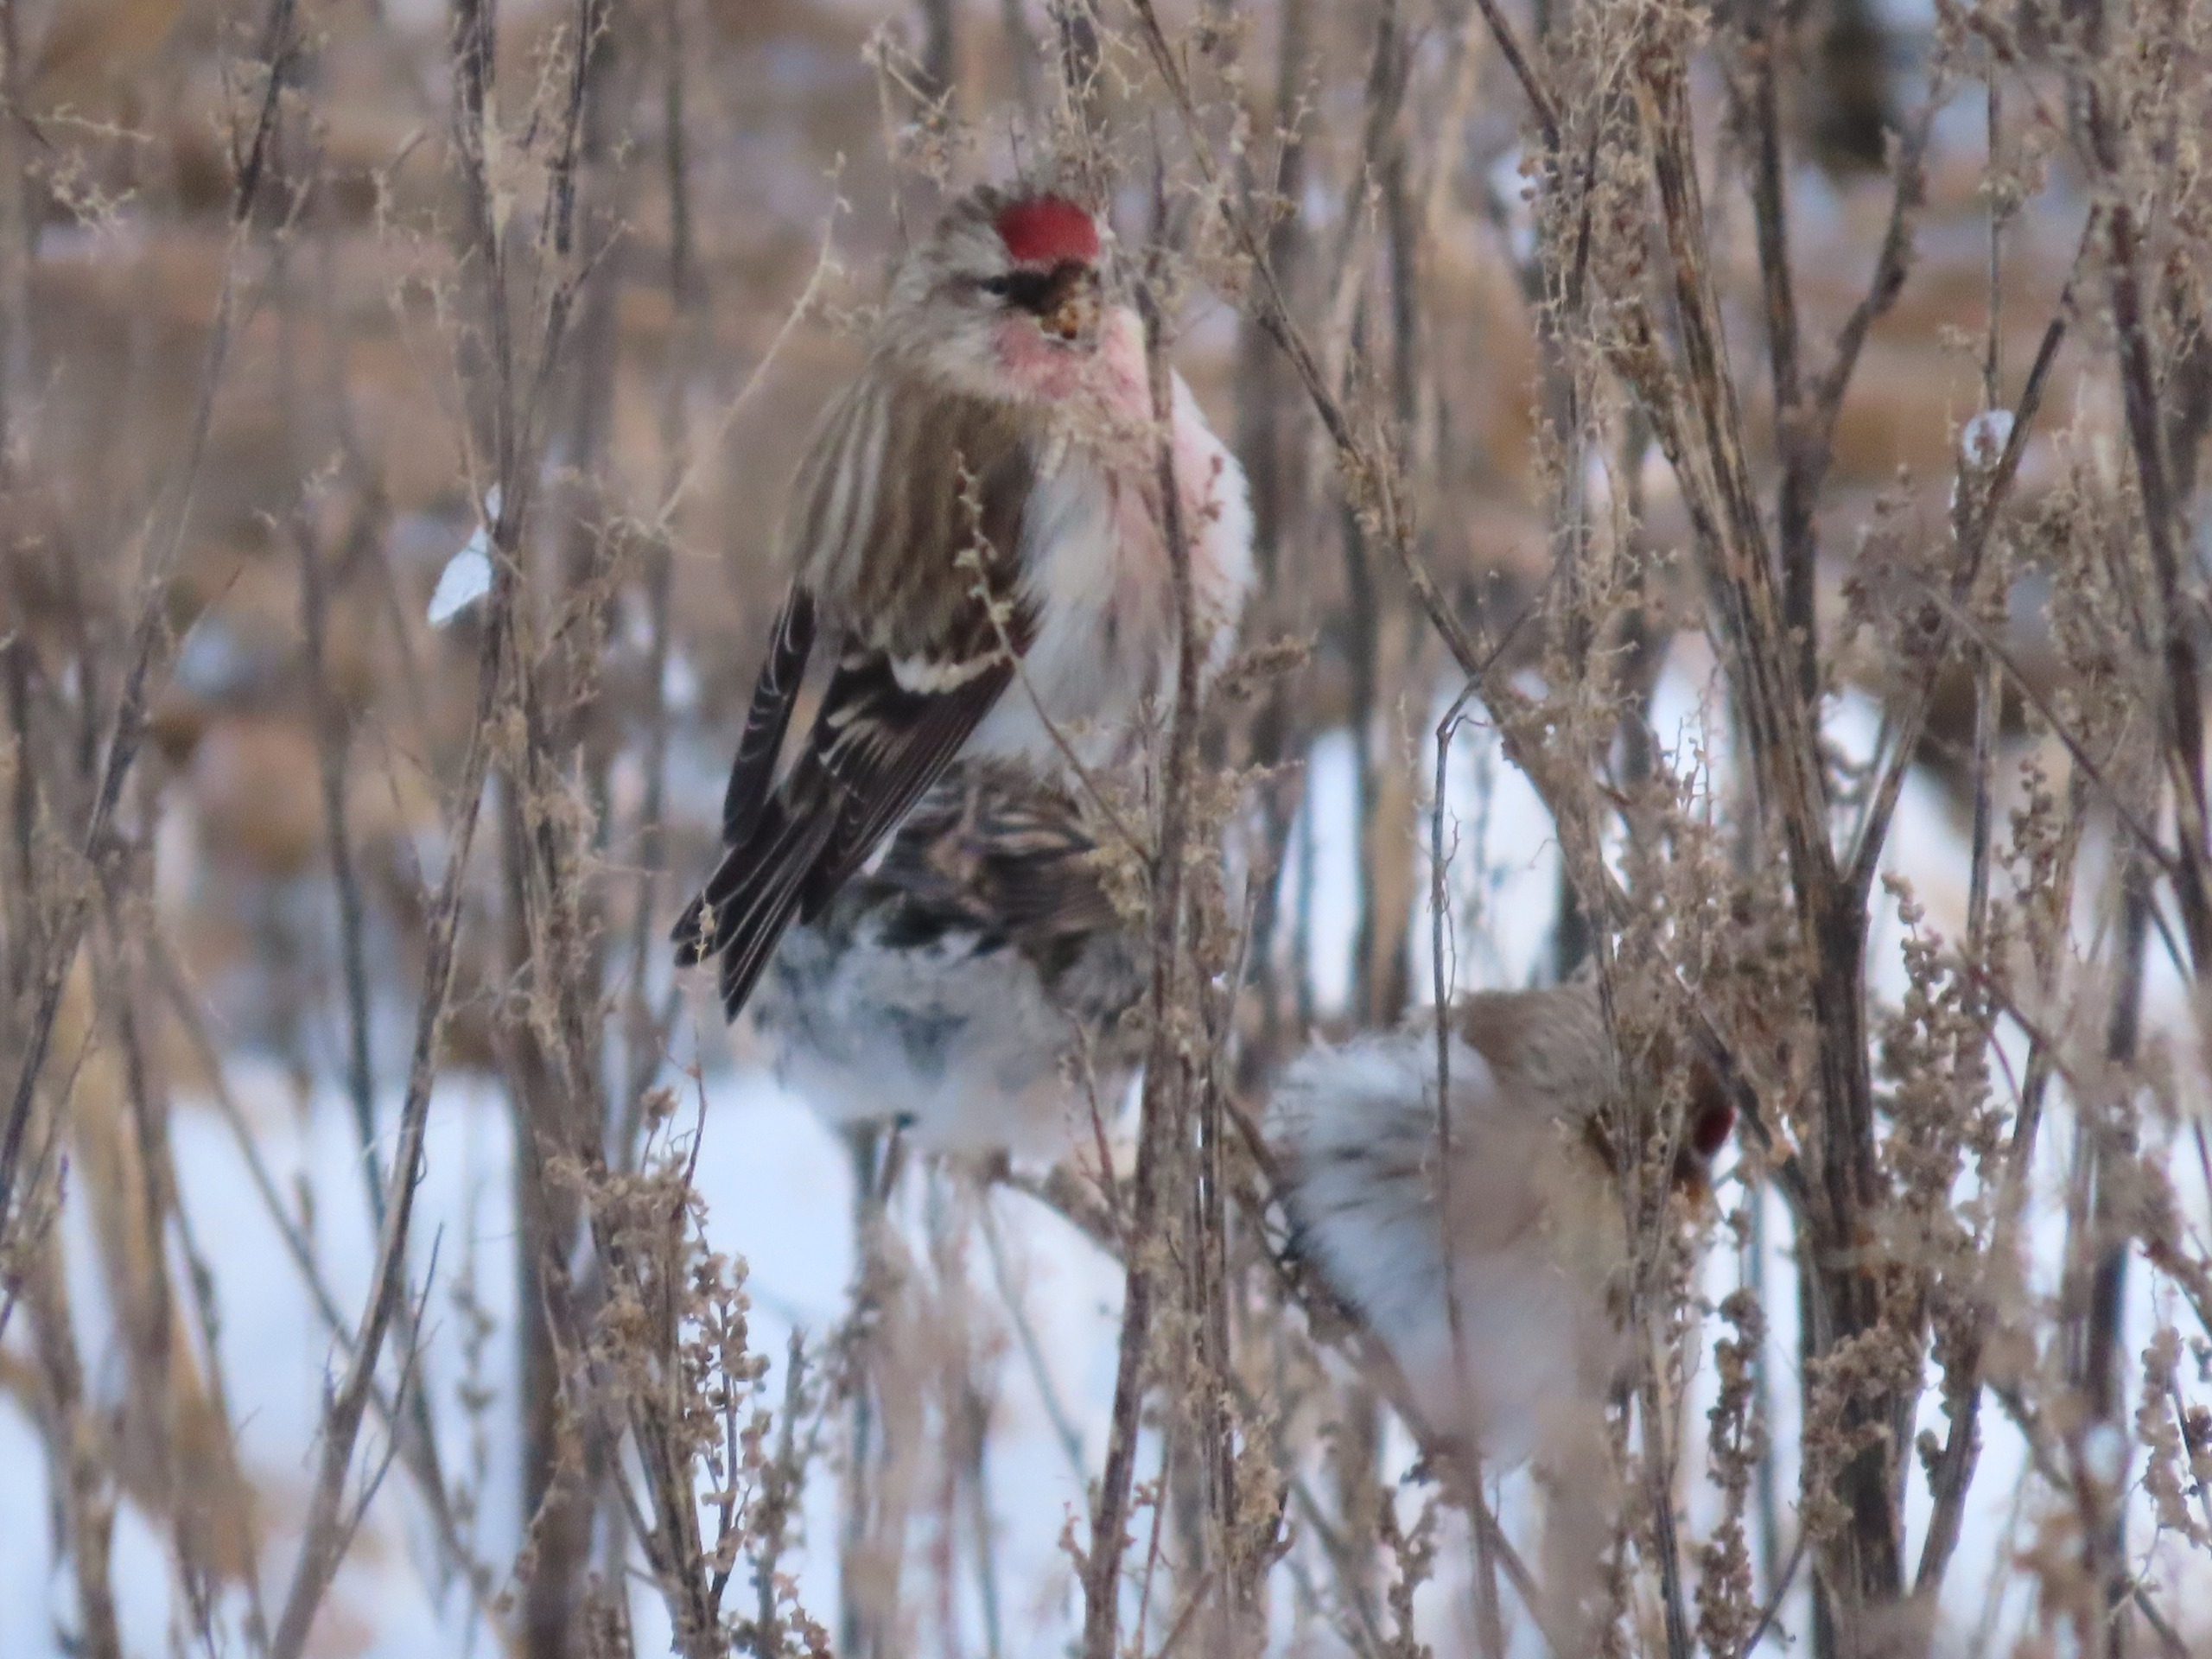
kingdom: Animalia
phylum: Chordata
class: Aves
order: Passeriformes
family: Fringillidae
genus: Acanthis
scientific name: Acanthis flammea
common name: Nordlig gråsisken
